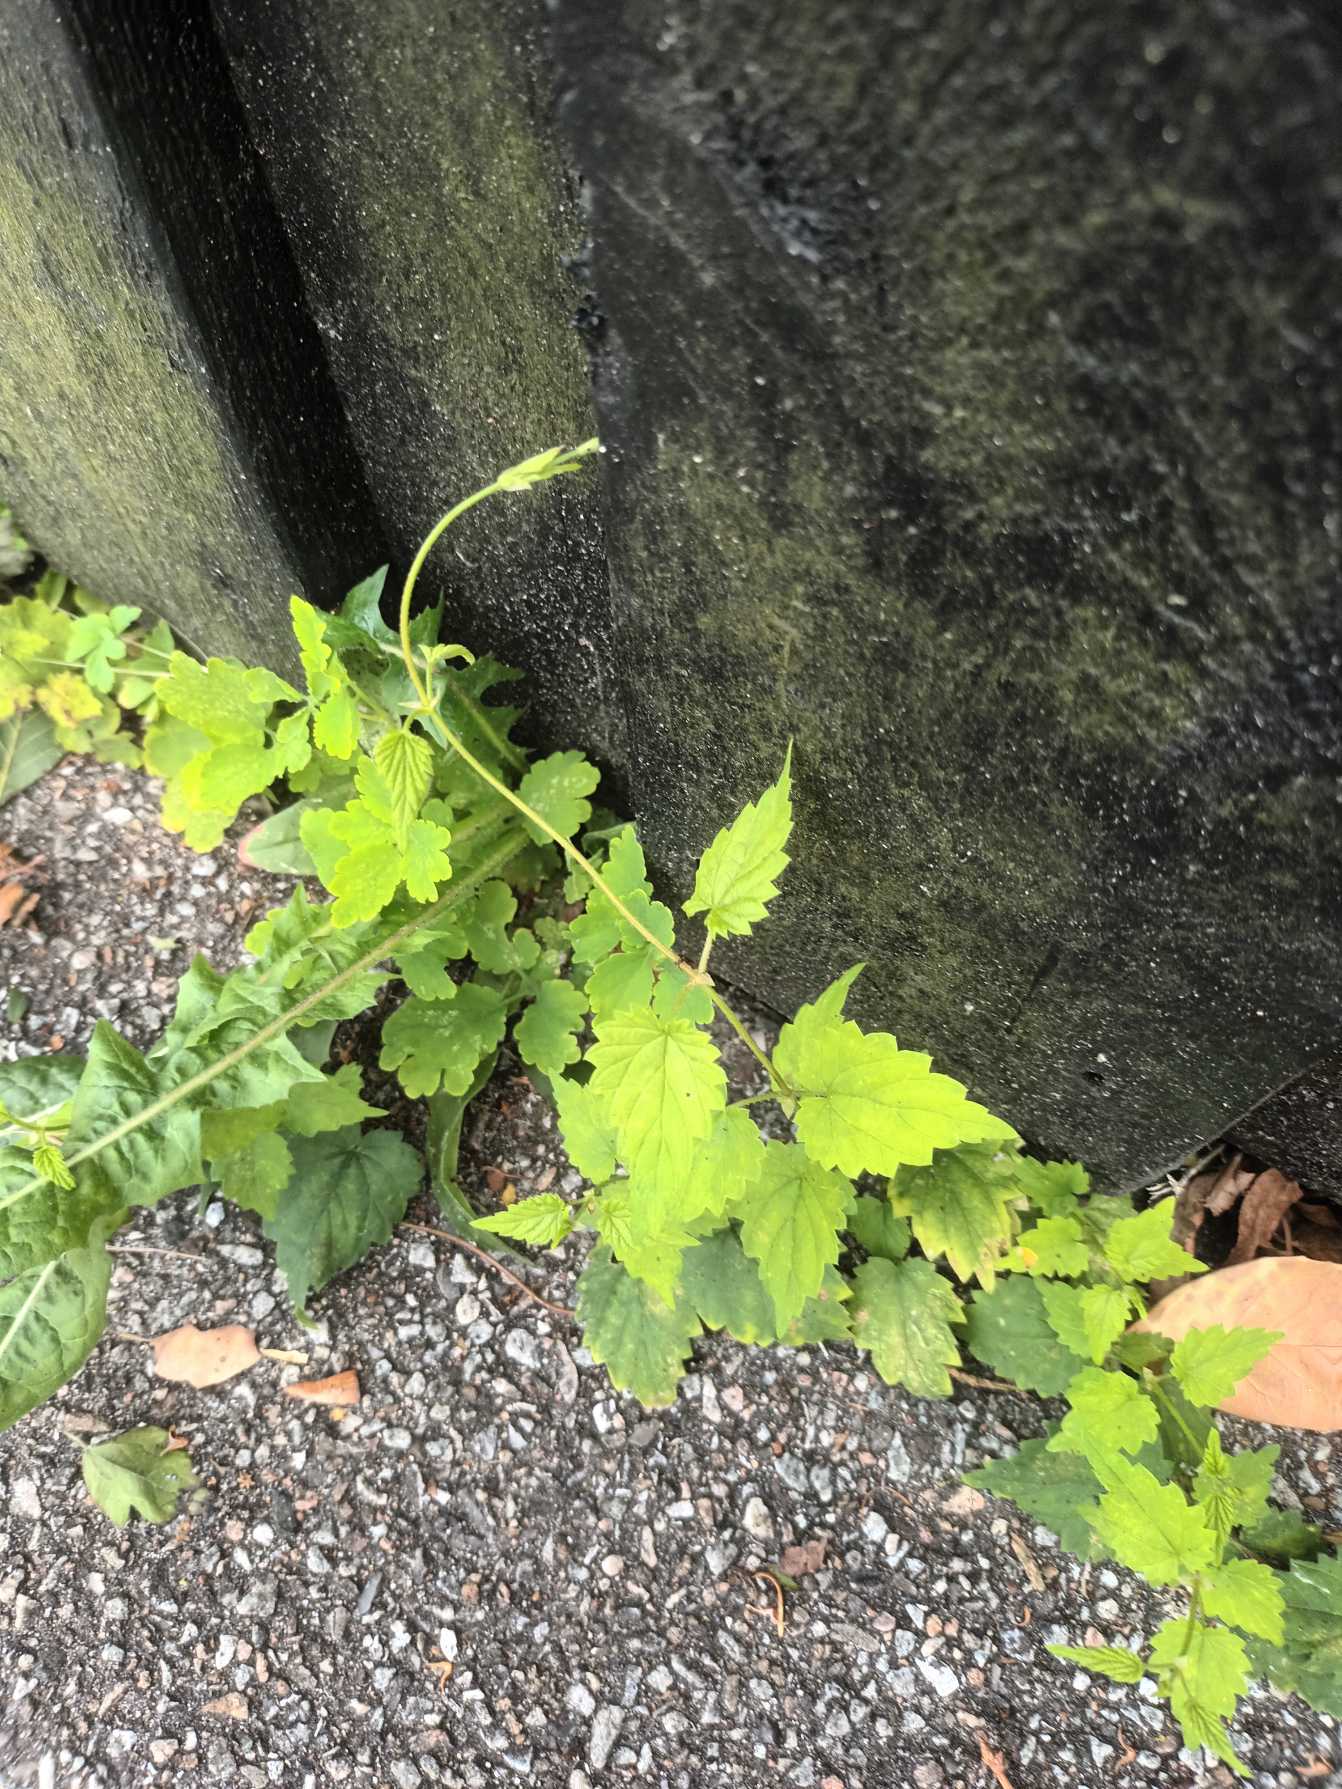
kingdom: Plantae
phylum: Tracheophyta
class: Magnoliopsida
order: Rosales
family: Cannabaceae
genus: Humulus
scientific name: Humulus lupulus
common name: Humle
